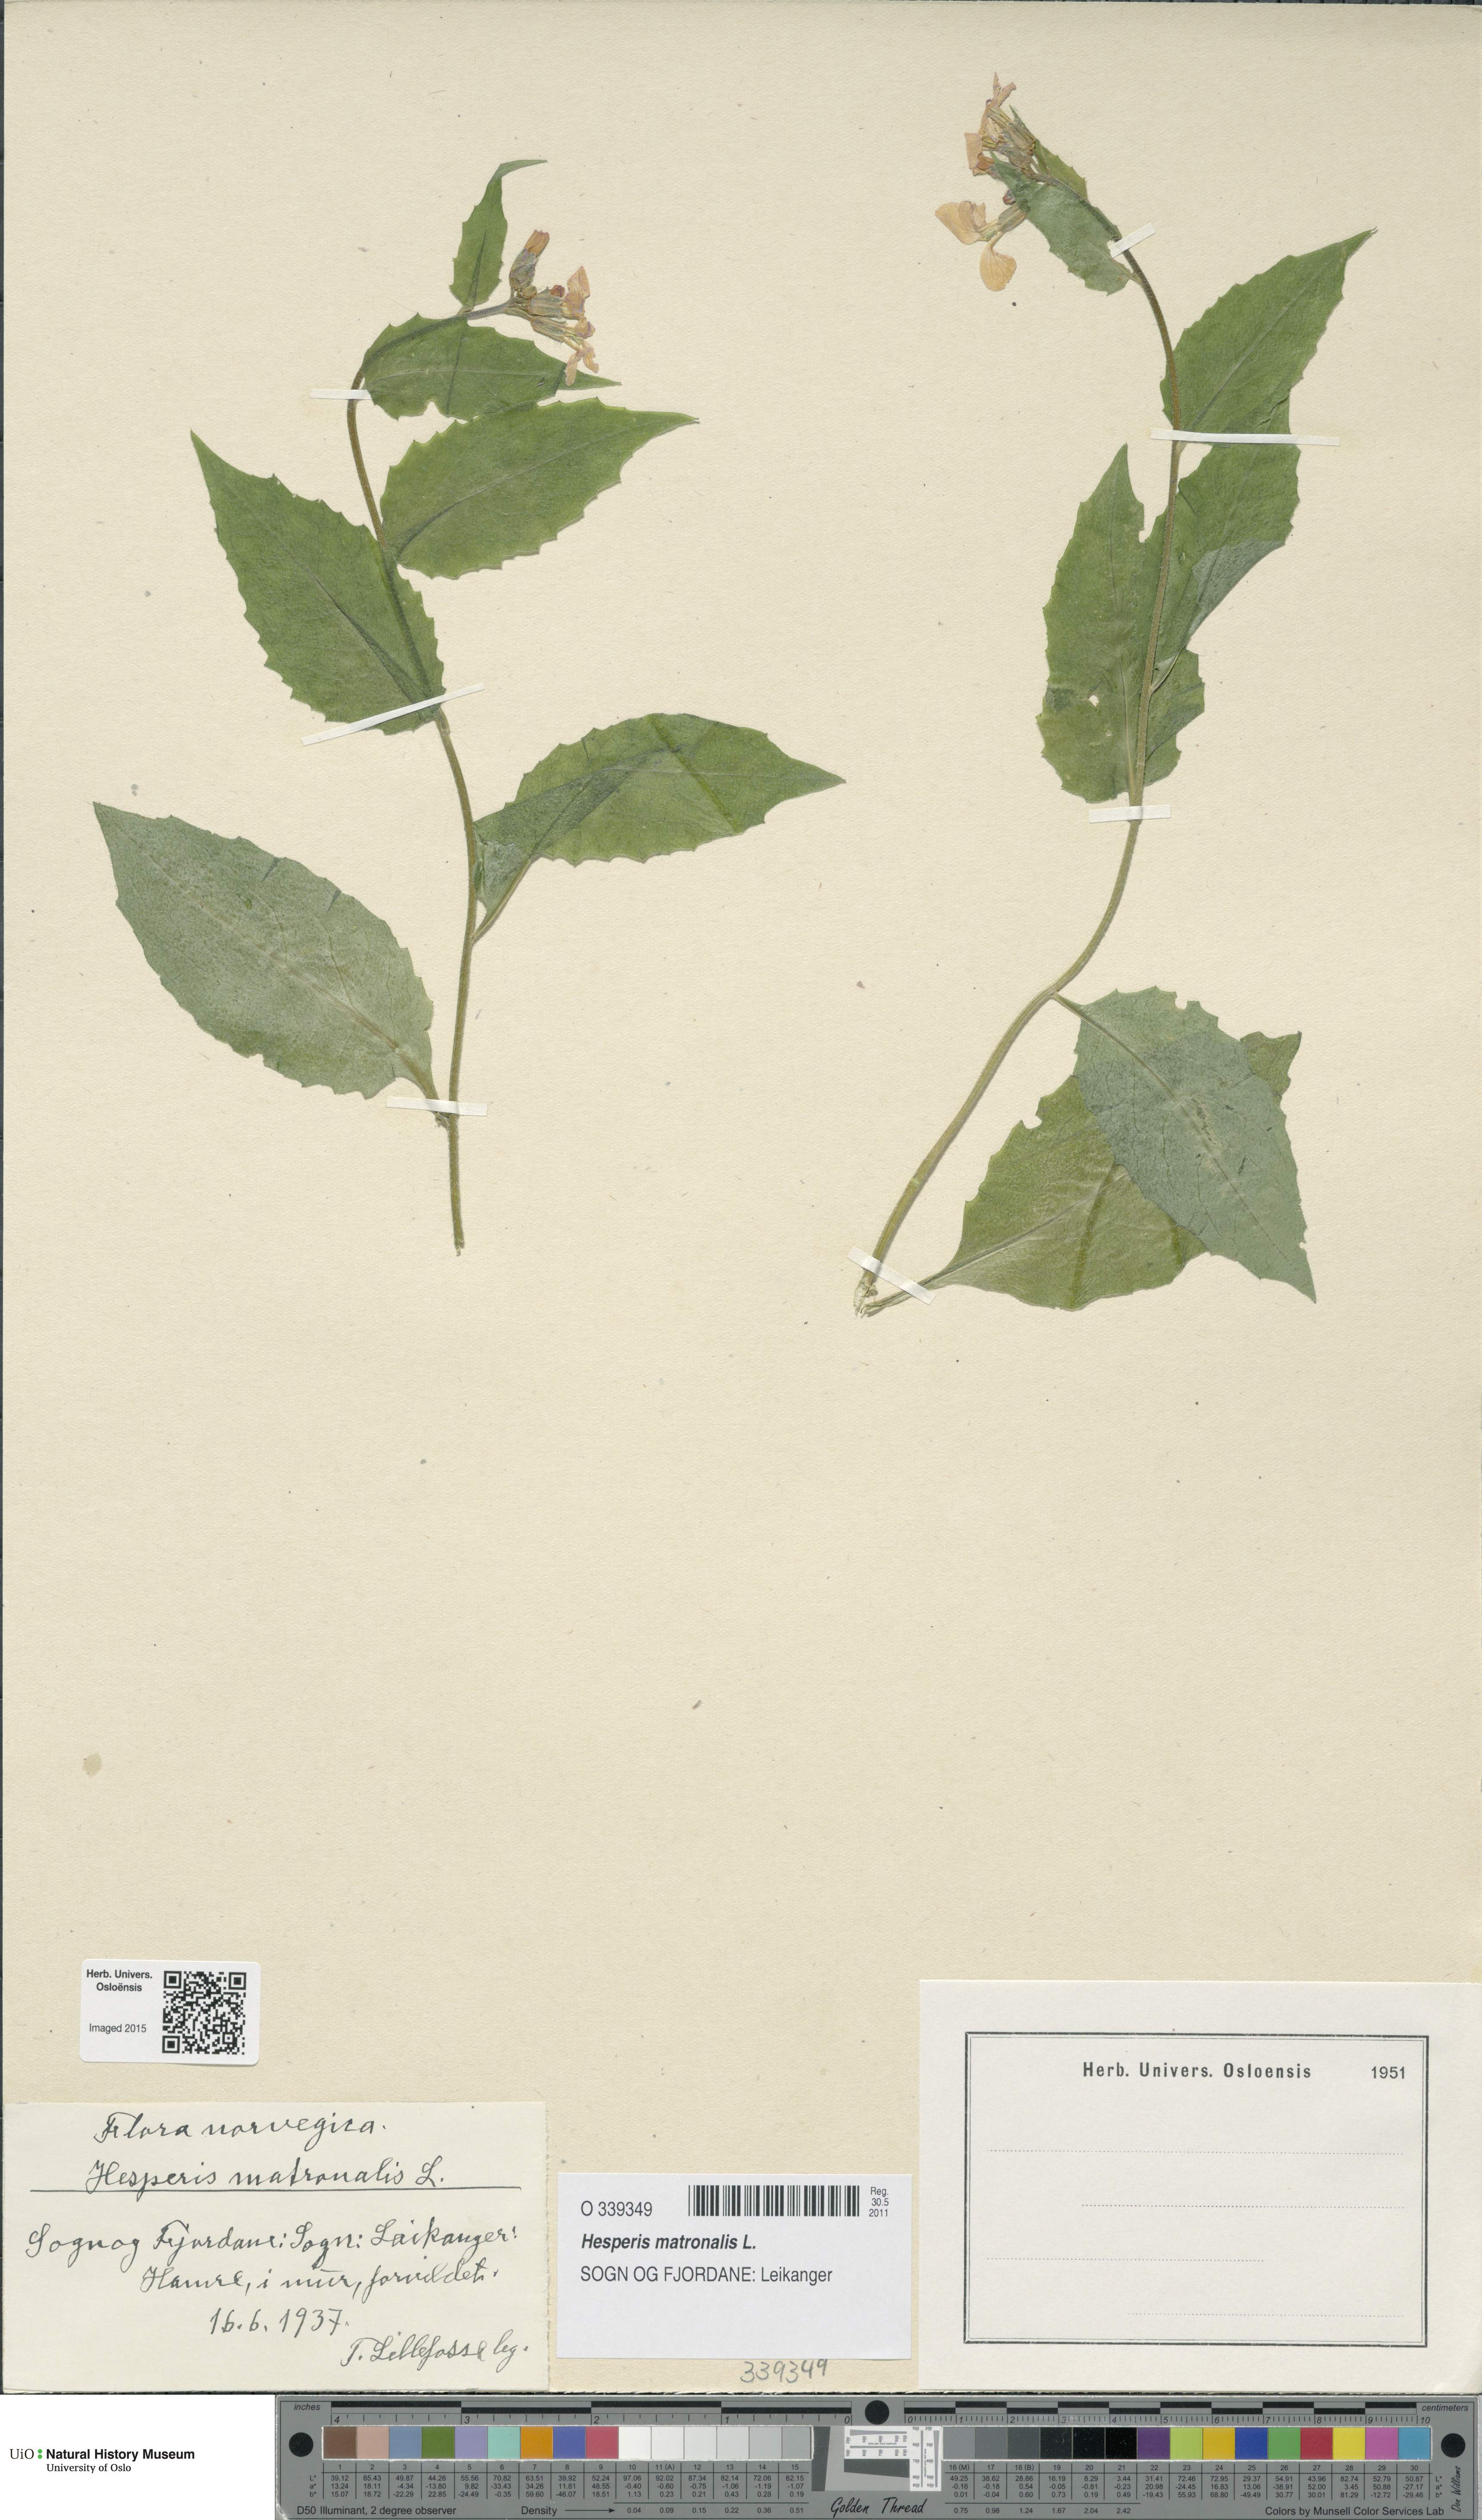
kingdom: Plantae
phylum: Tracheophyta
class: Magnoliopsida
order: Brassicales
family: Brassicaceae
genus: Hesperis
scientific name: Hesperis matronalis
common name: Dame's-violet
